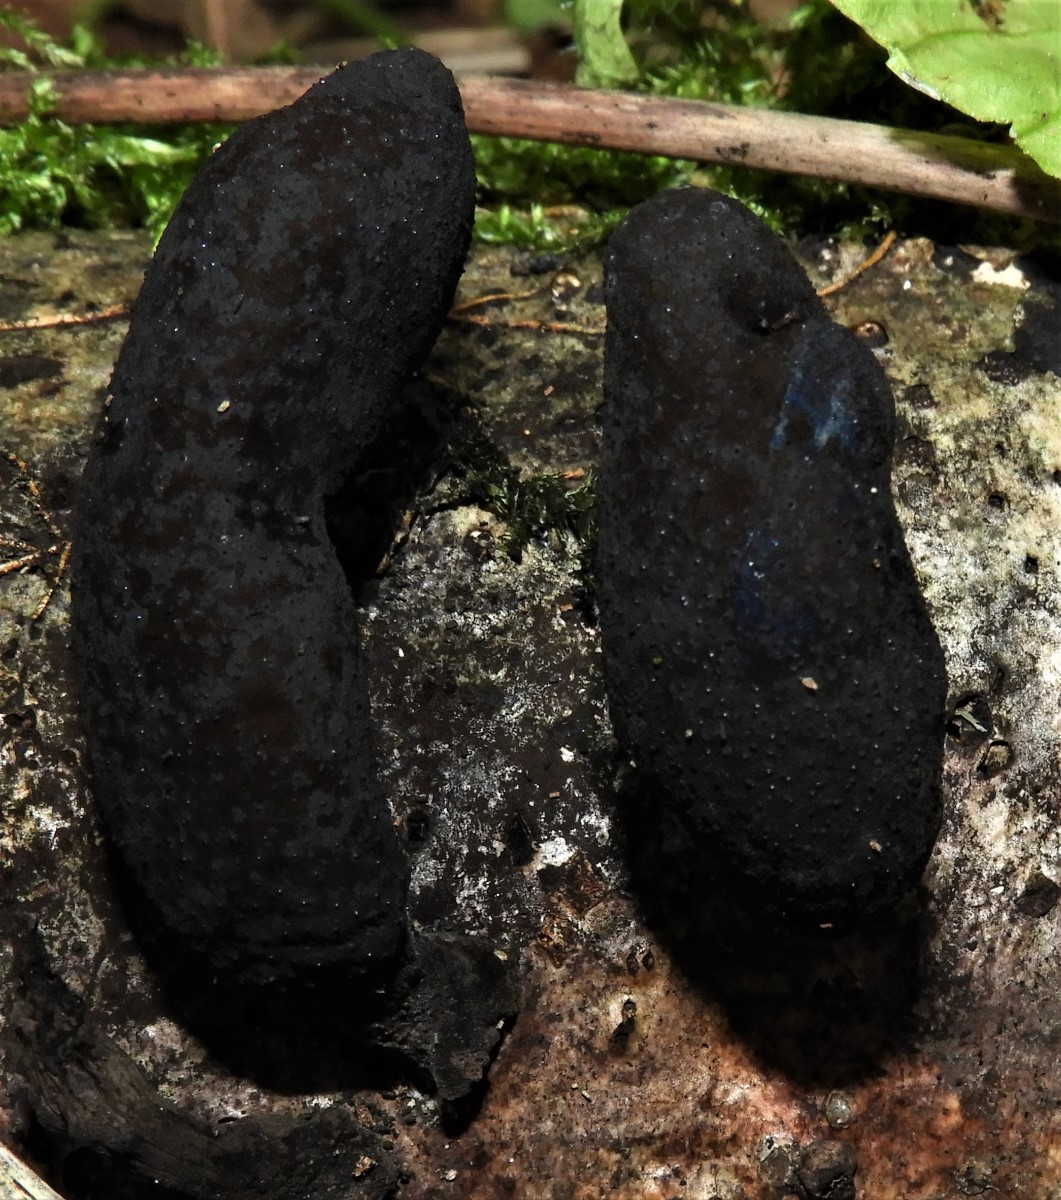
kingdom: Fungi
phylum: Ascomycota
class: Sordariomycetes
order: Xylariales
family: Xylariaceae
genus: Xylaria
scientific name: Xylaria polymorpha
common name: kølle-stødsvamp
